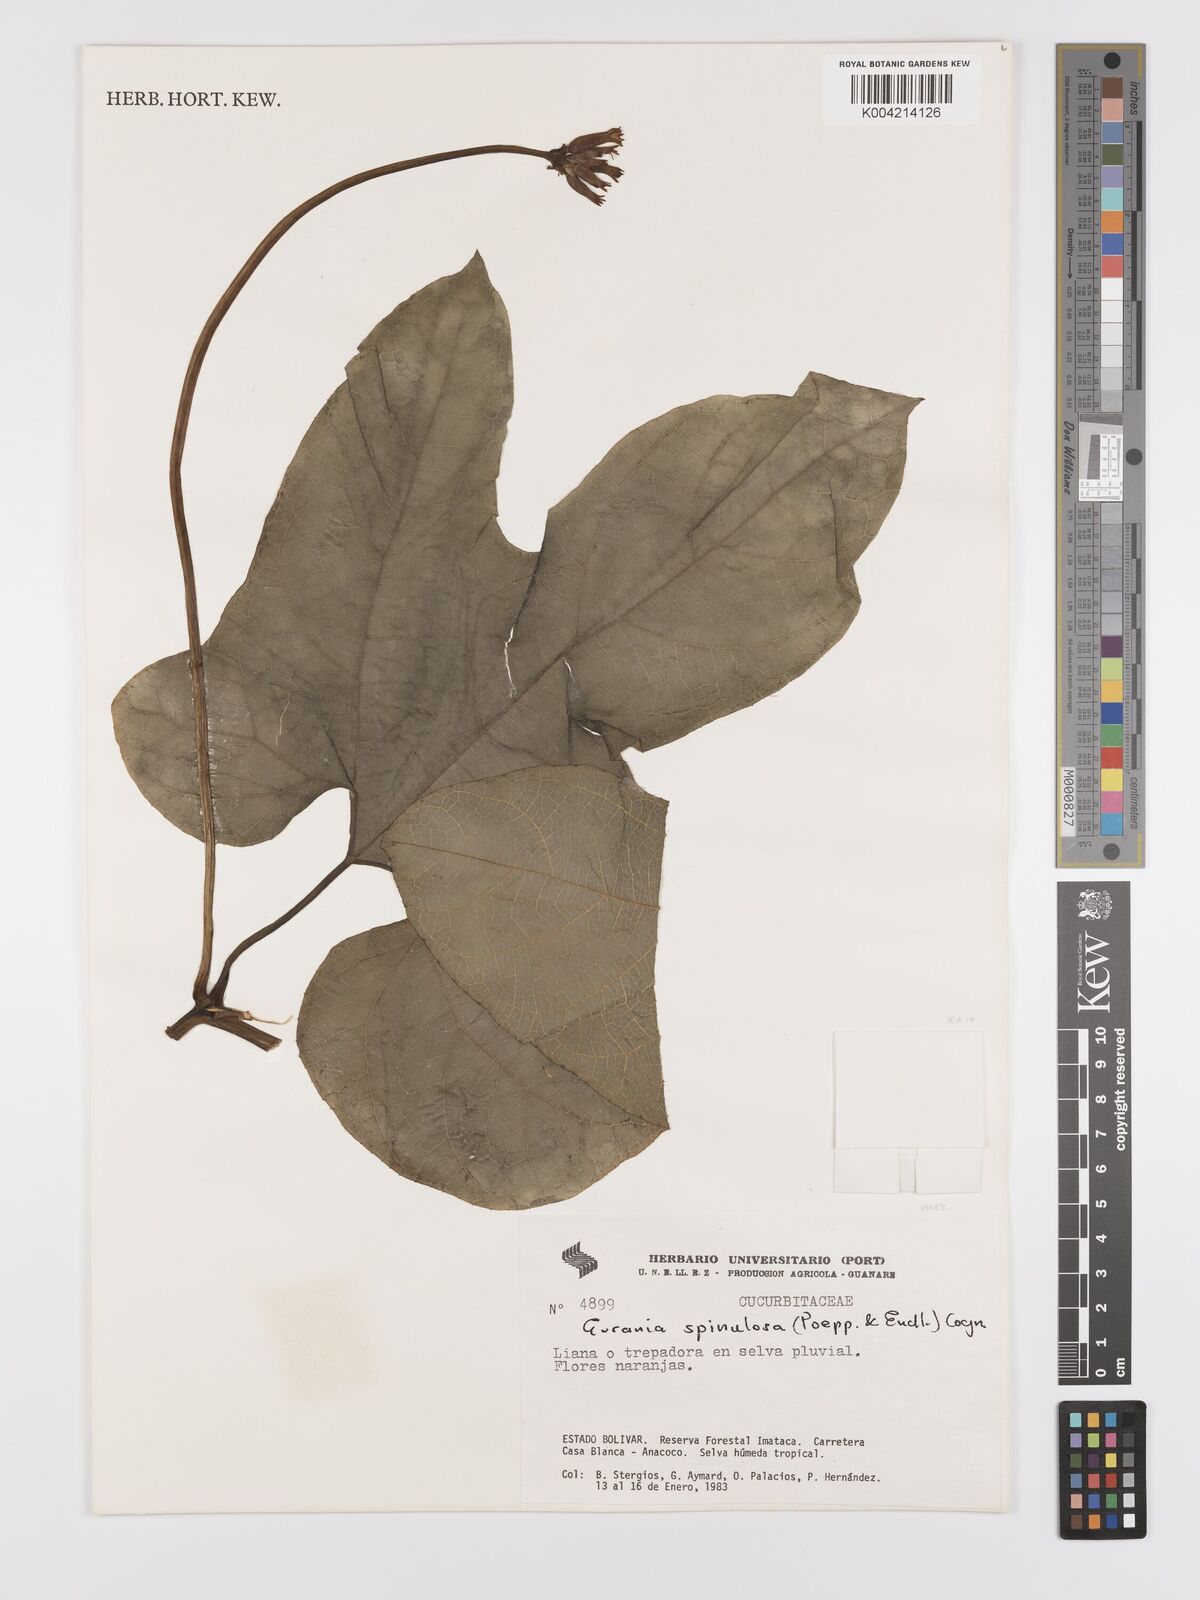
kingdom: Plantae
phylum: Tracheophyta
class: Magnoliopsida
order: Cucurbitales
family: Cucurbitaceae
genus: Gurania
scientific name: Gurania lobata
